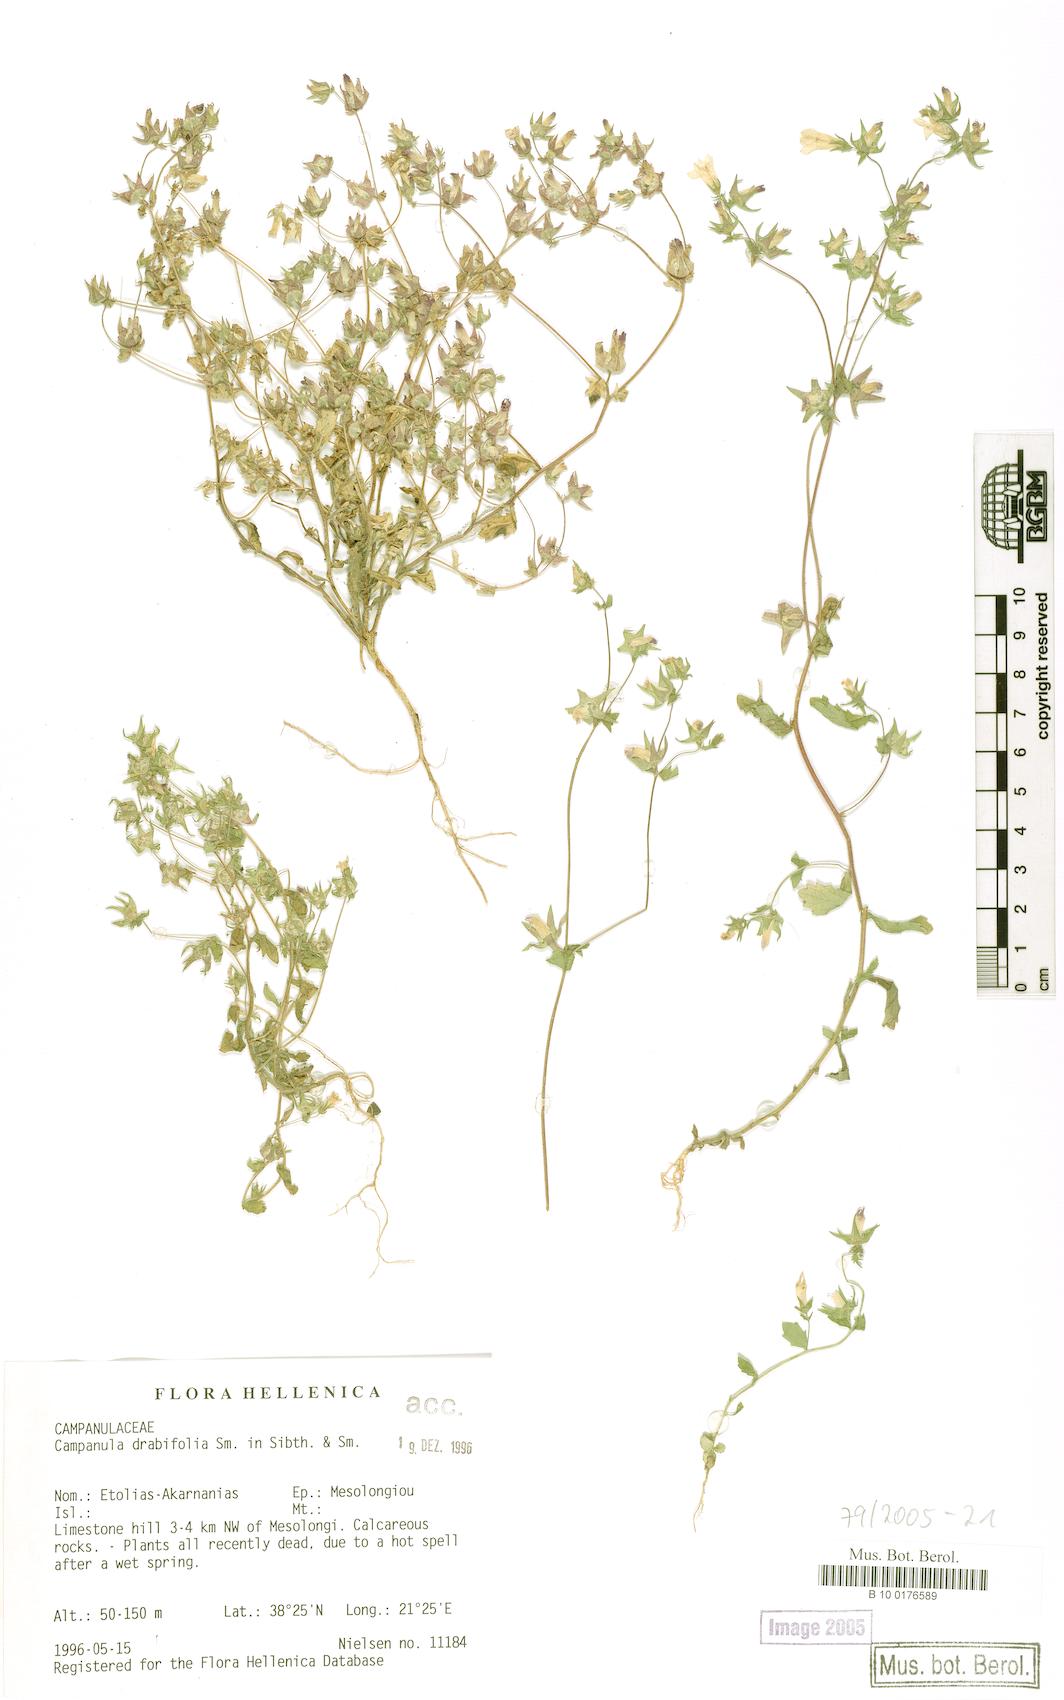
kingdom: Plantae
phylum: Tracheophyta
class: Magnoliopsida
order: Asterales
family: Campanulaceae
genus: Campanula
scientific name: Campanula drabifolia
